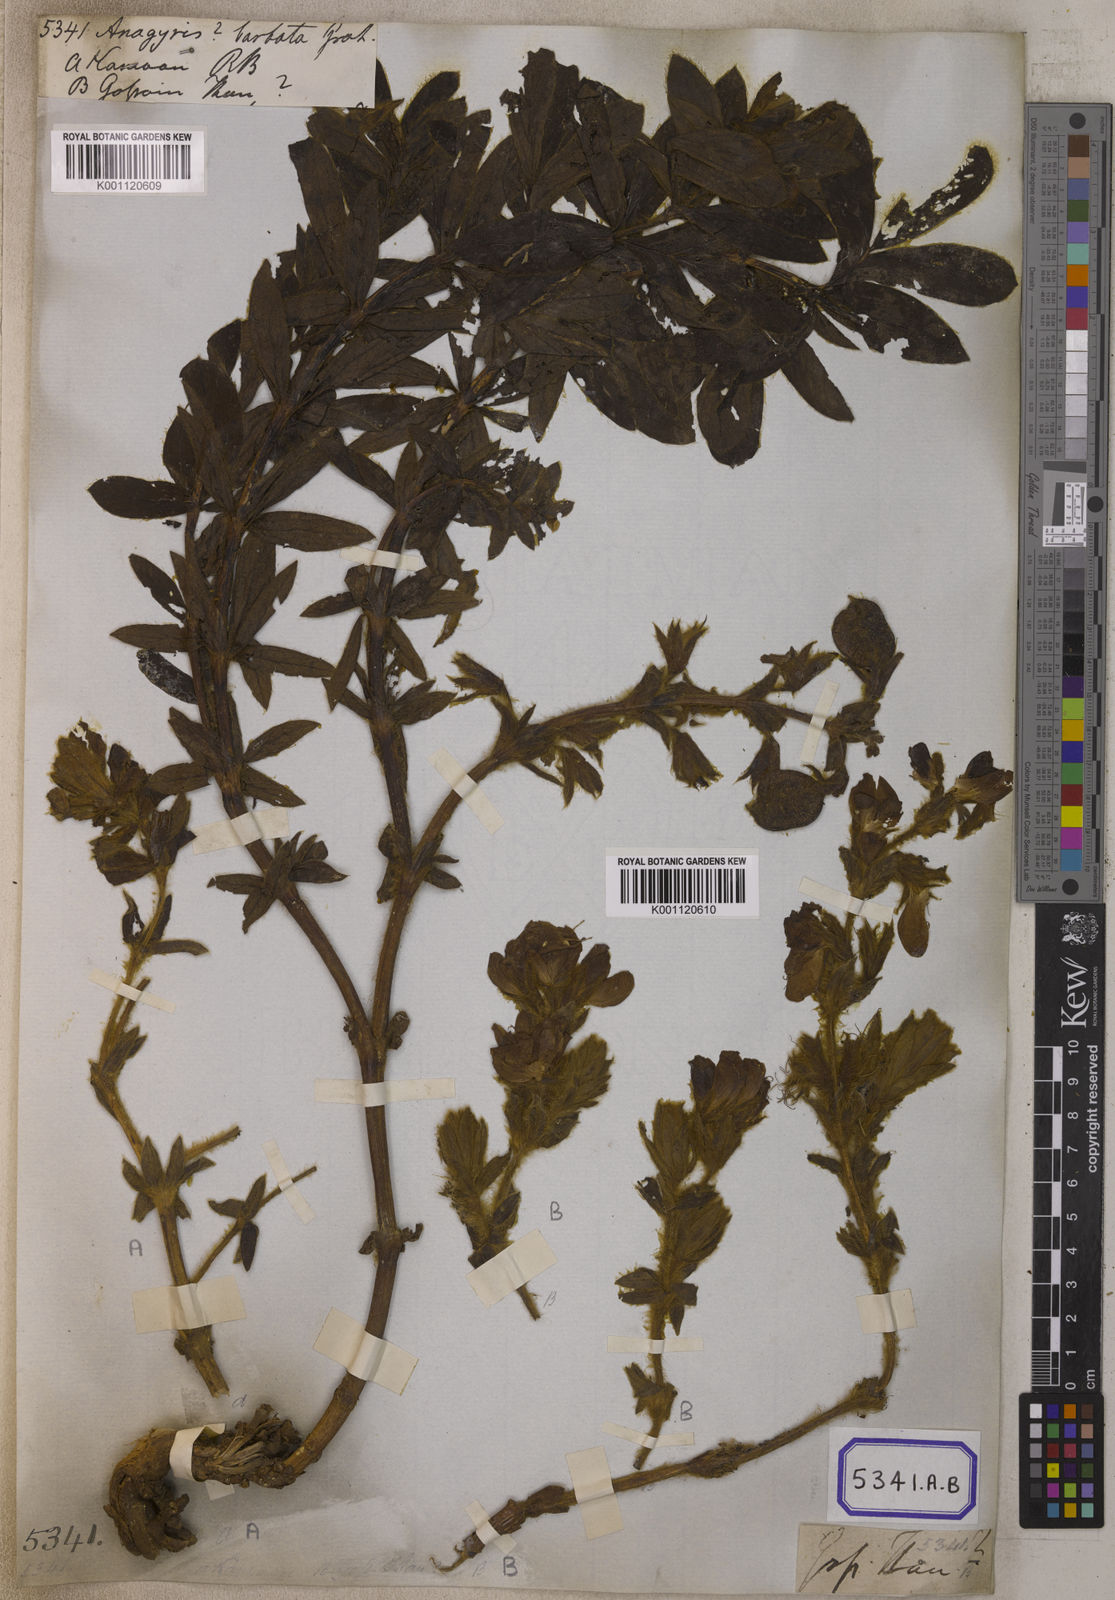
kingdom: Plantae
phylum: Tracheophyta
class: Magnoliopsida
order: Fabales
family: Fabaceae
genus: Thermopsis
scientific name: Thermopsis barbata
